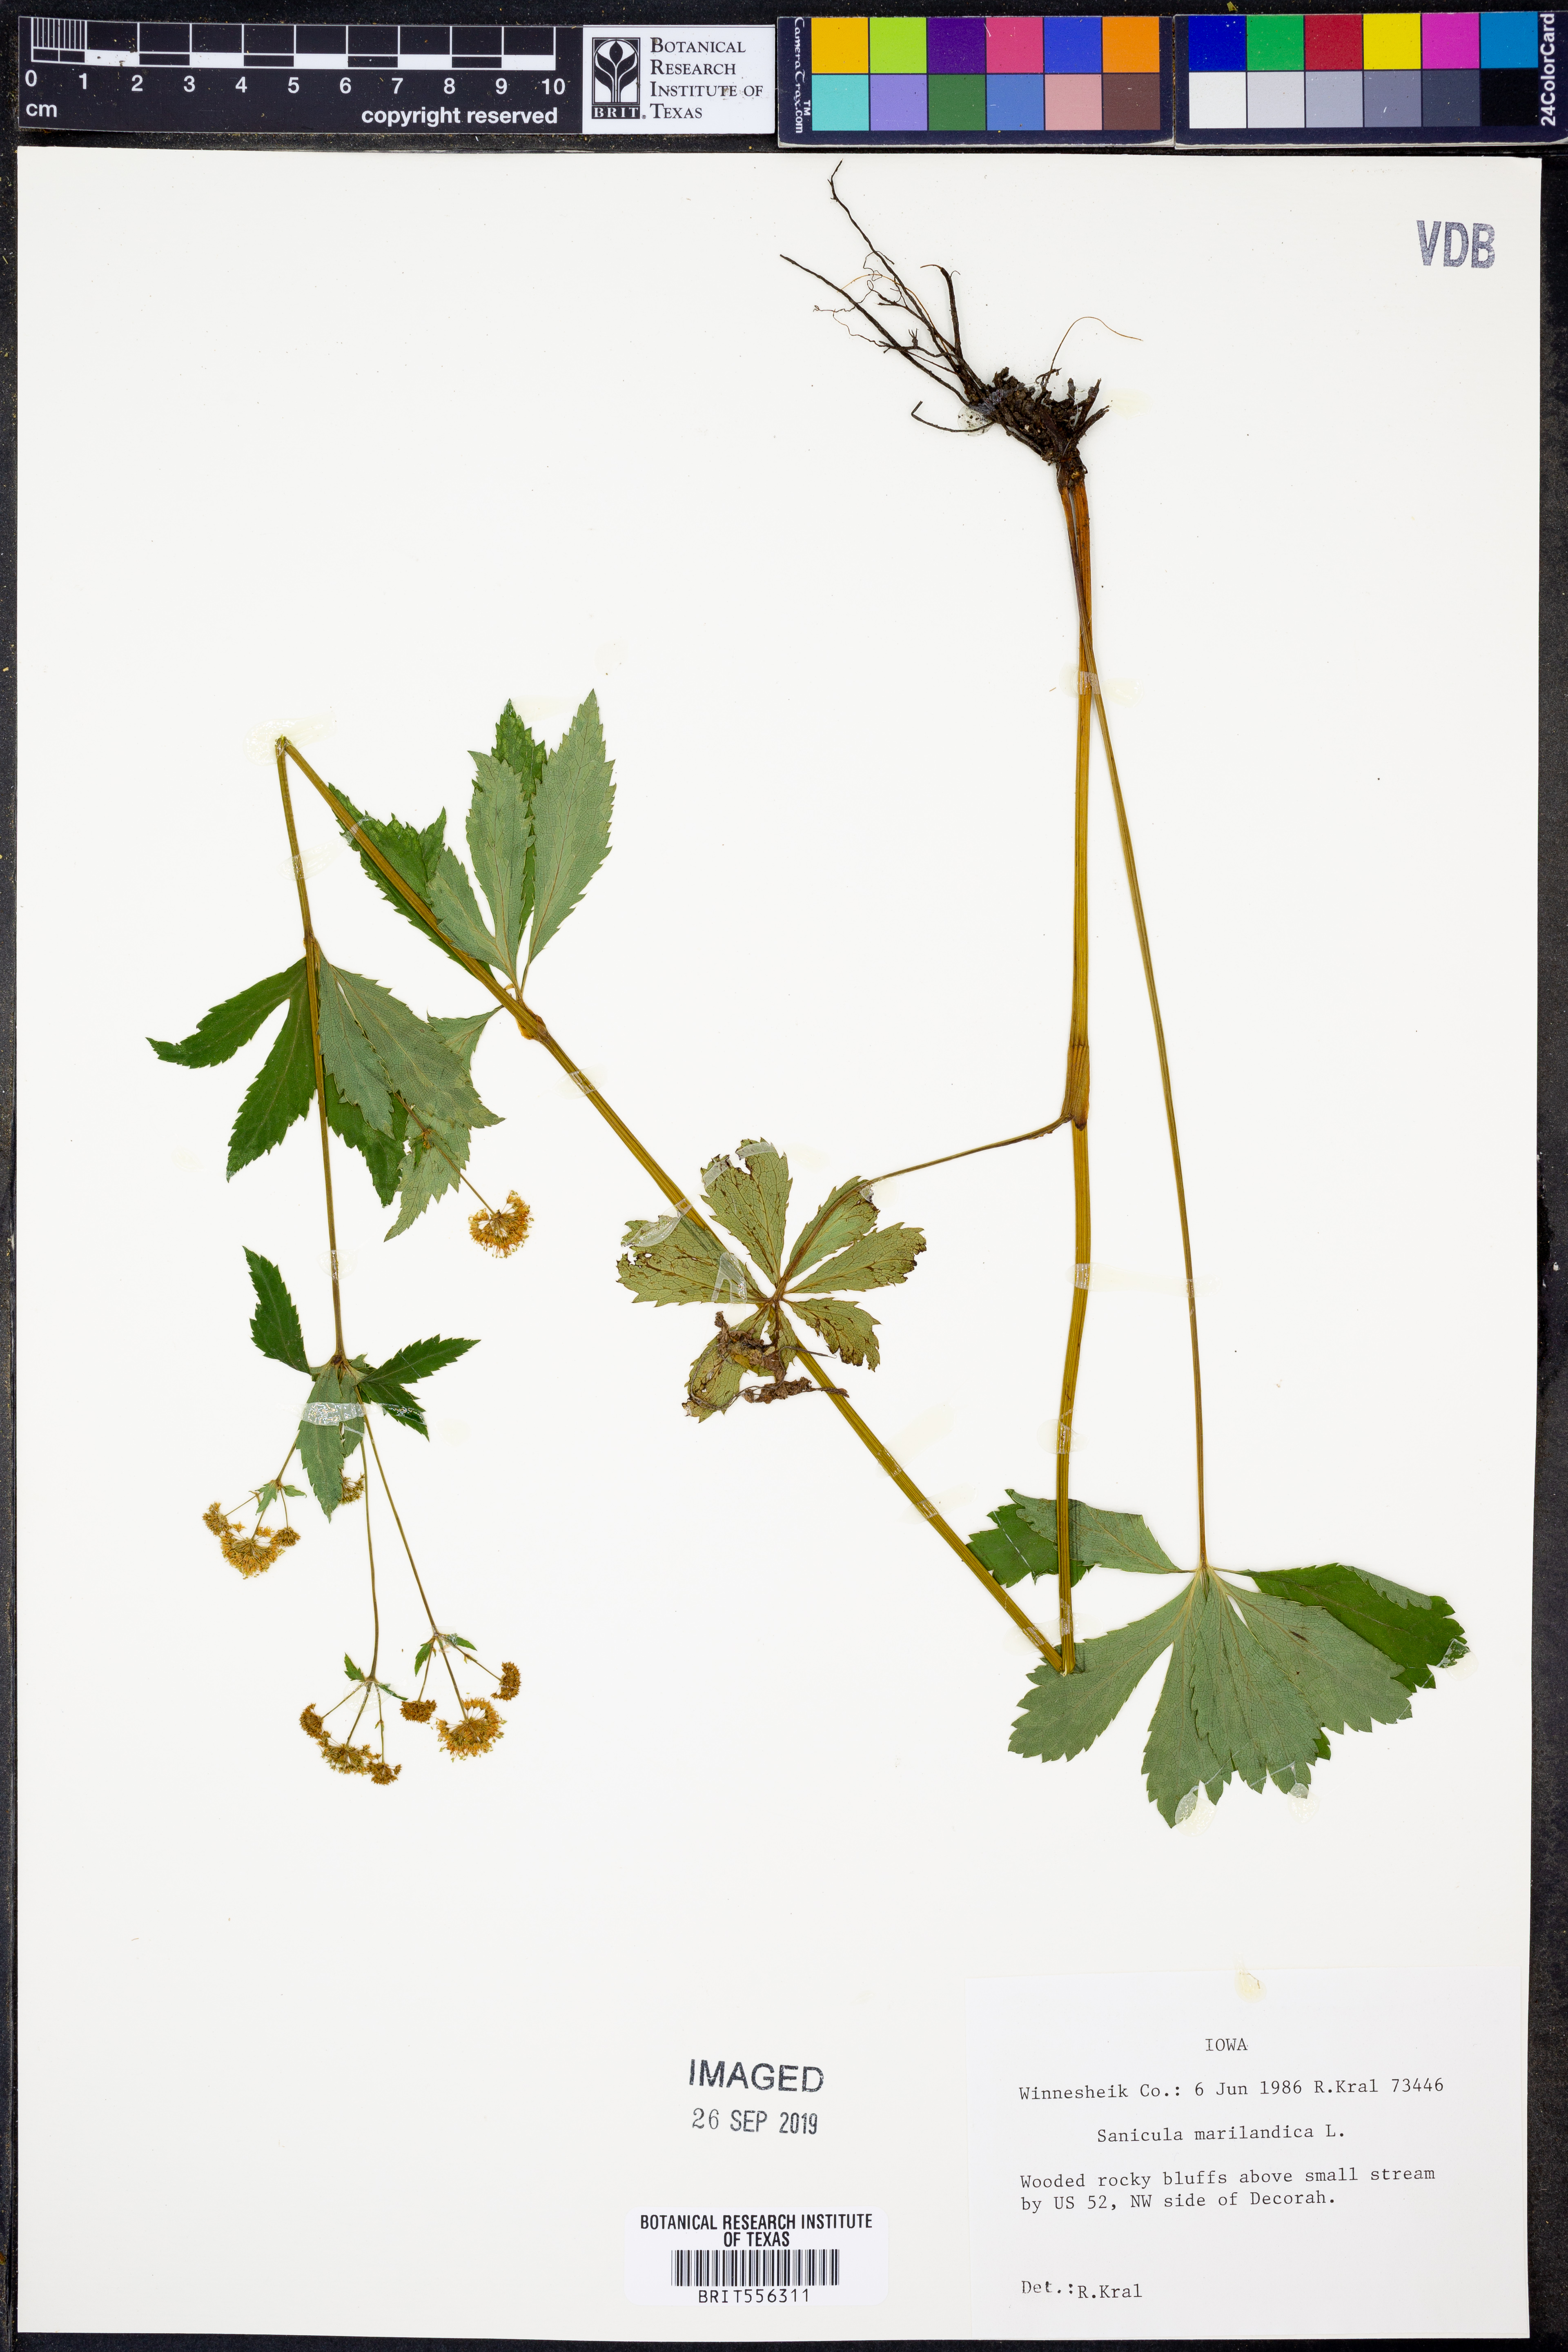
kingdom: Plantae
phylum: Tracheophyta
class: Magnoliopsida
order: Apiales
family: Apiaceae
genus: Sanicula
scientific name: Sanicula marilandica
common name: Black snakeroot
